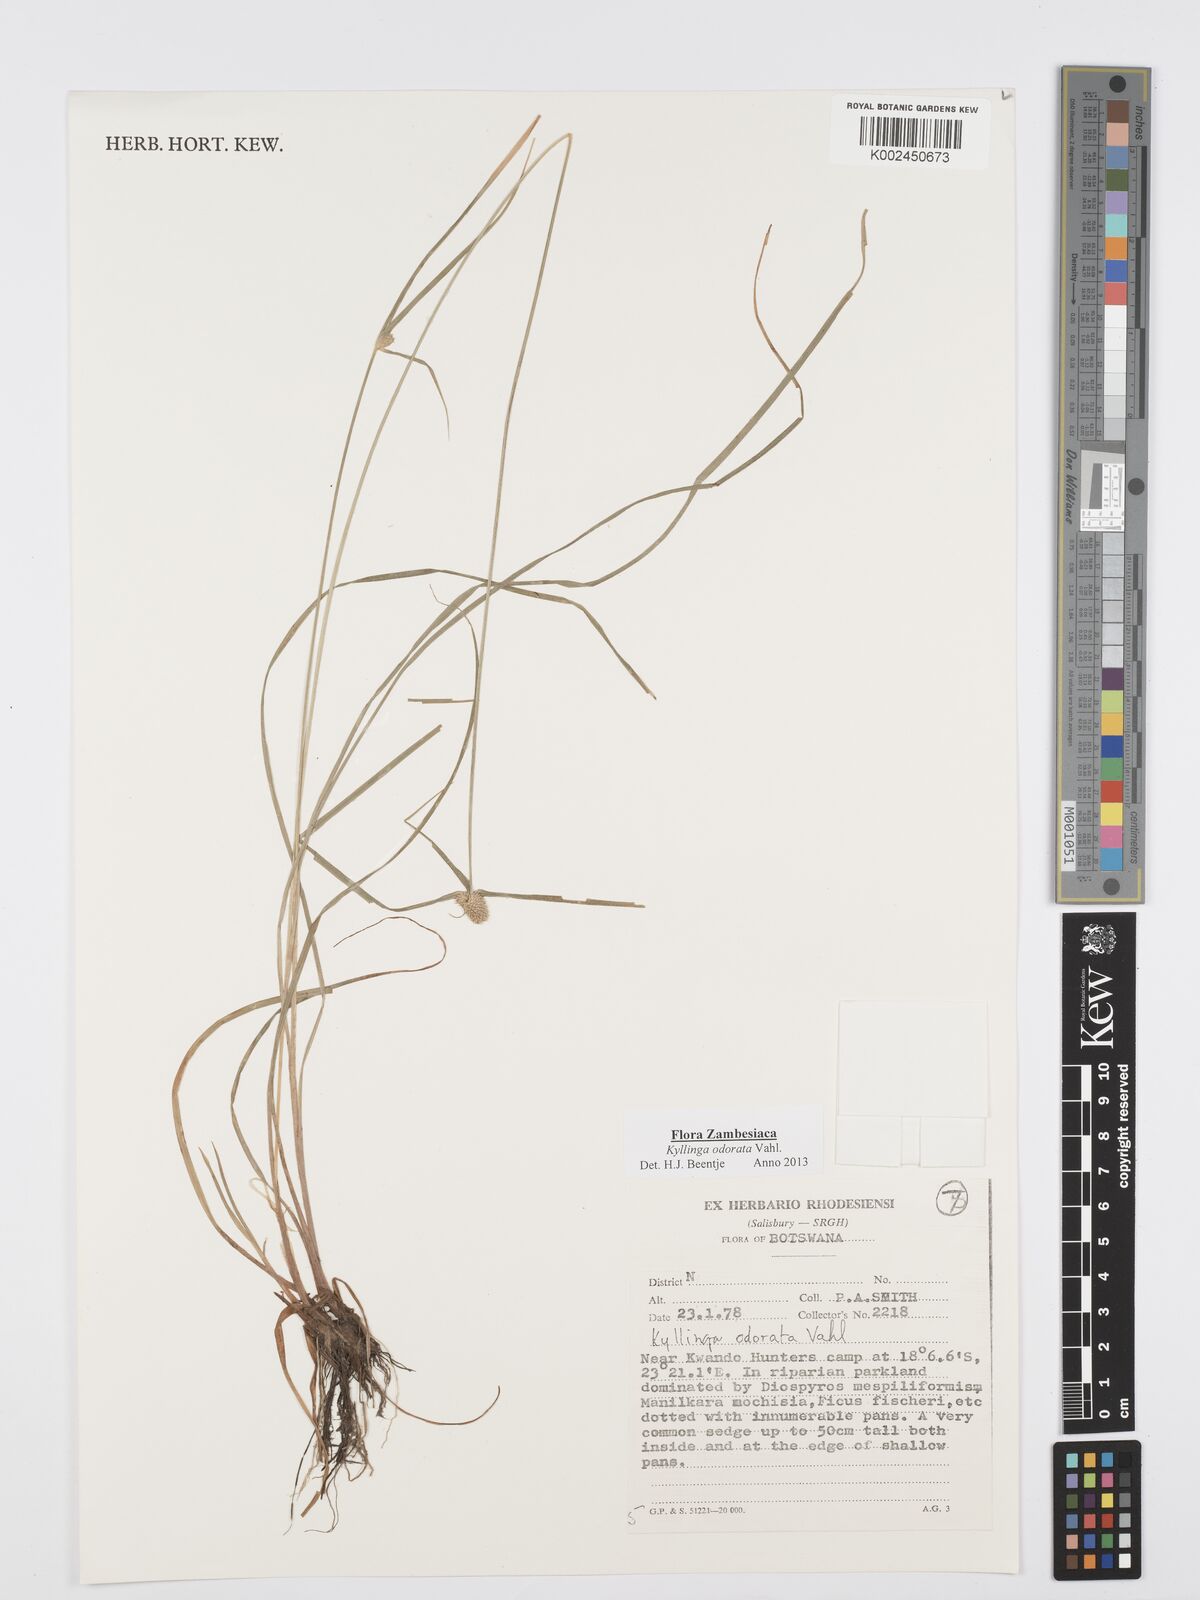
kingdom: Plantae
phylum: Tracheophyta
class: Liliopsida
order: Poales
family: Cyperaceae
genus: Cyperus
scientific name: Cyperus
